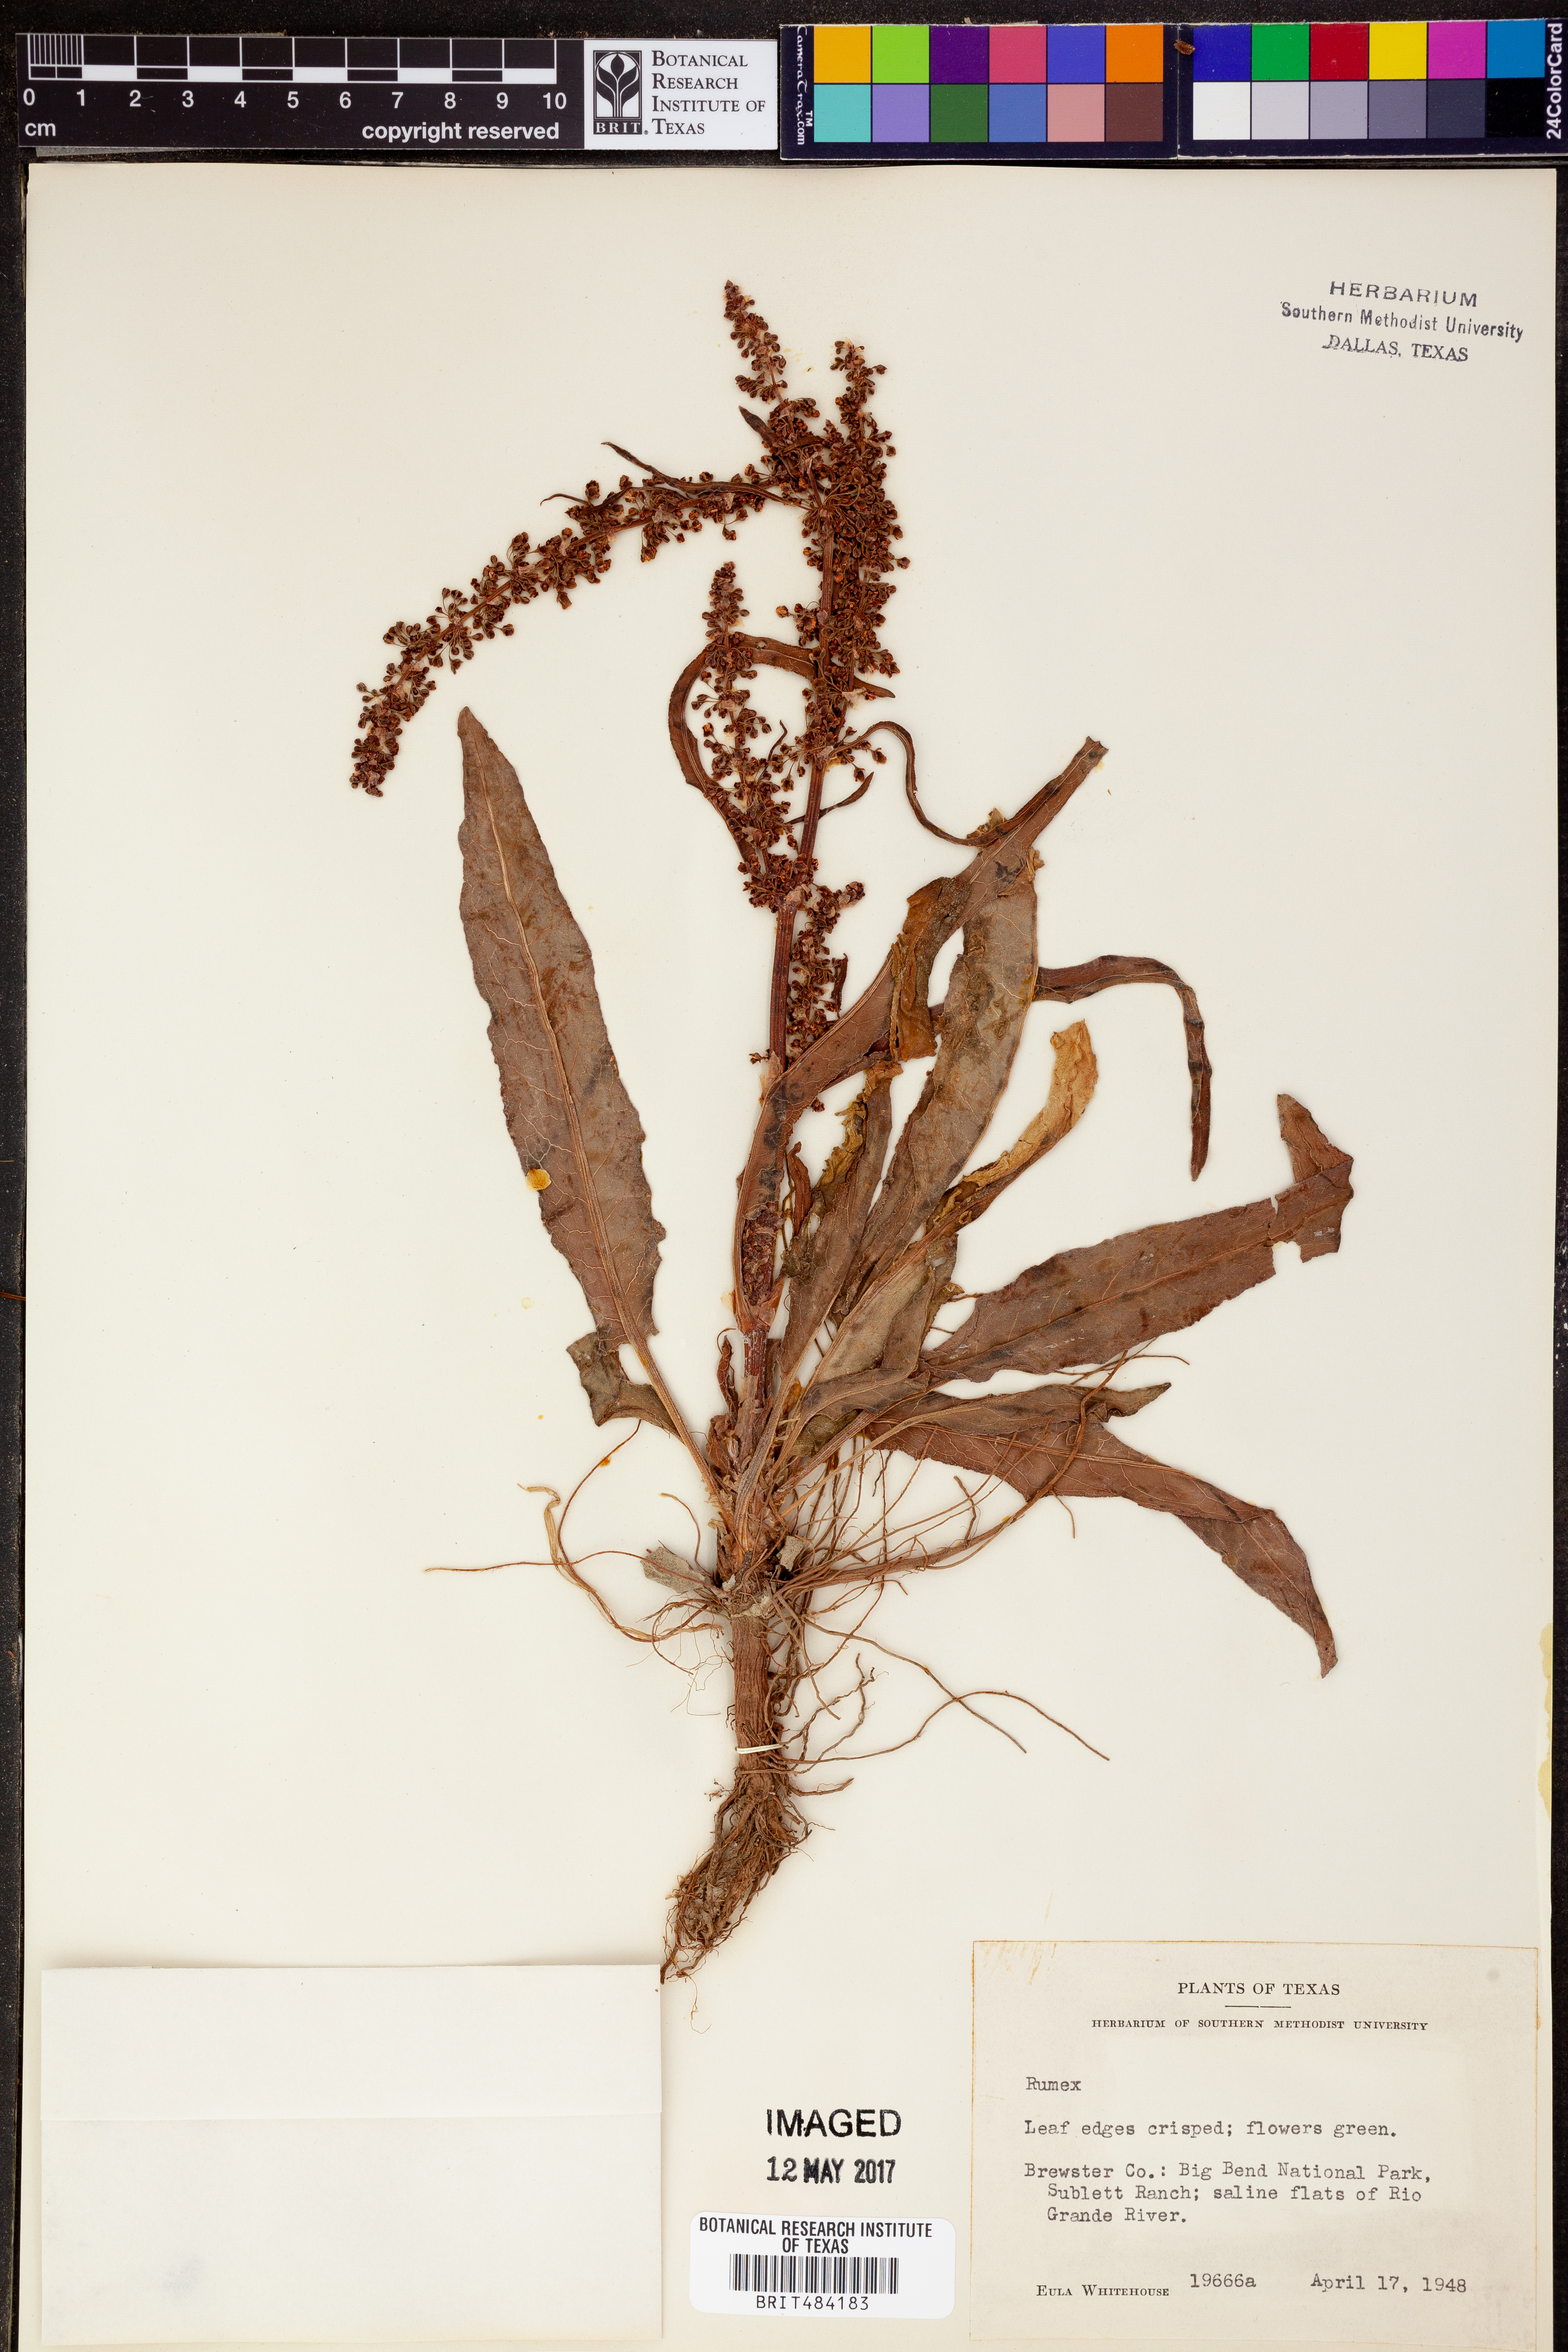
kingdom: Plantae
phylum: Tracheophyta
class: Magnoliopsida
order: Caryophyllales
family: Polygonaceae
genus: Rumex
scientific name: Rumex
